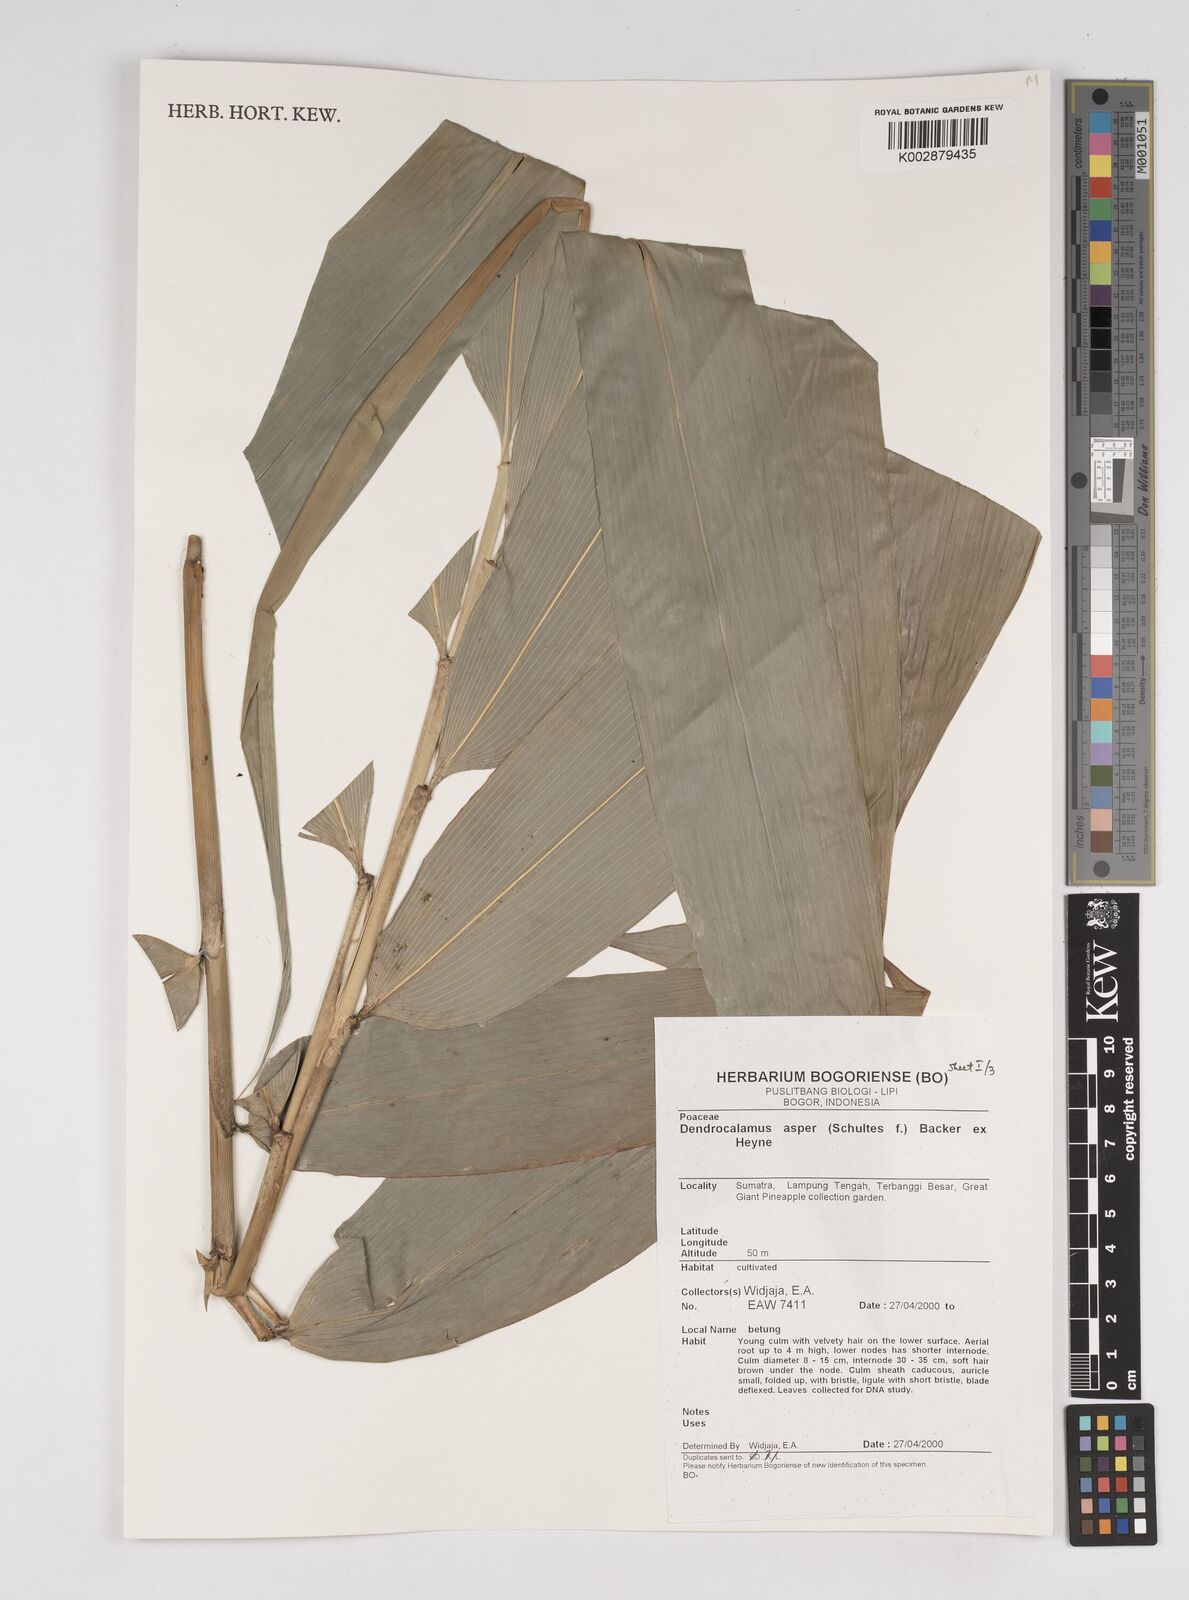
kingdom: Plantae
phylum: Tracheophyta
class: Liliopsida
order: Poales
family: Poaceae
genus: Dendrocalamus
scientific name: Dendrocalamus asper
